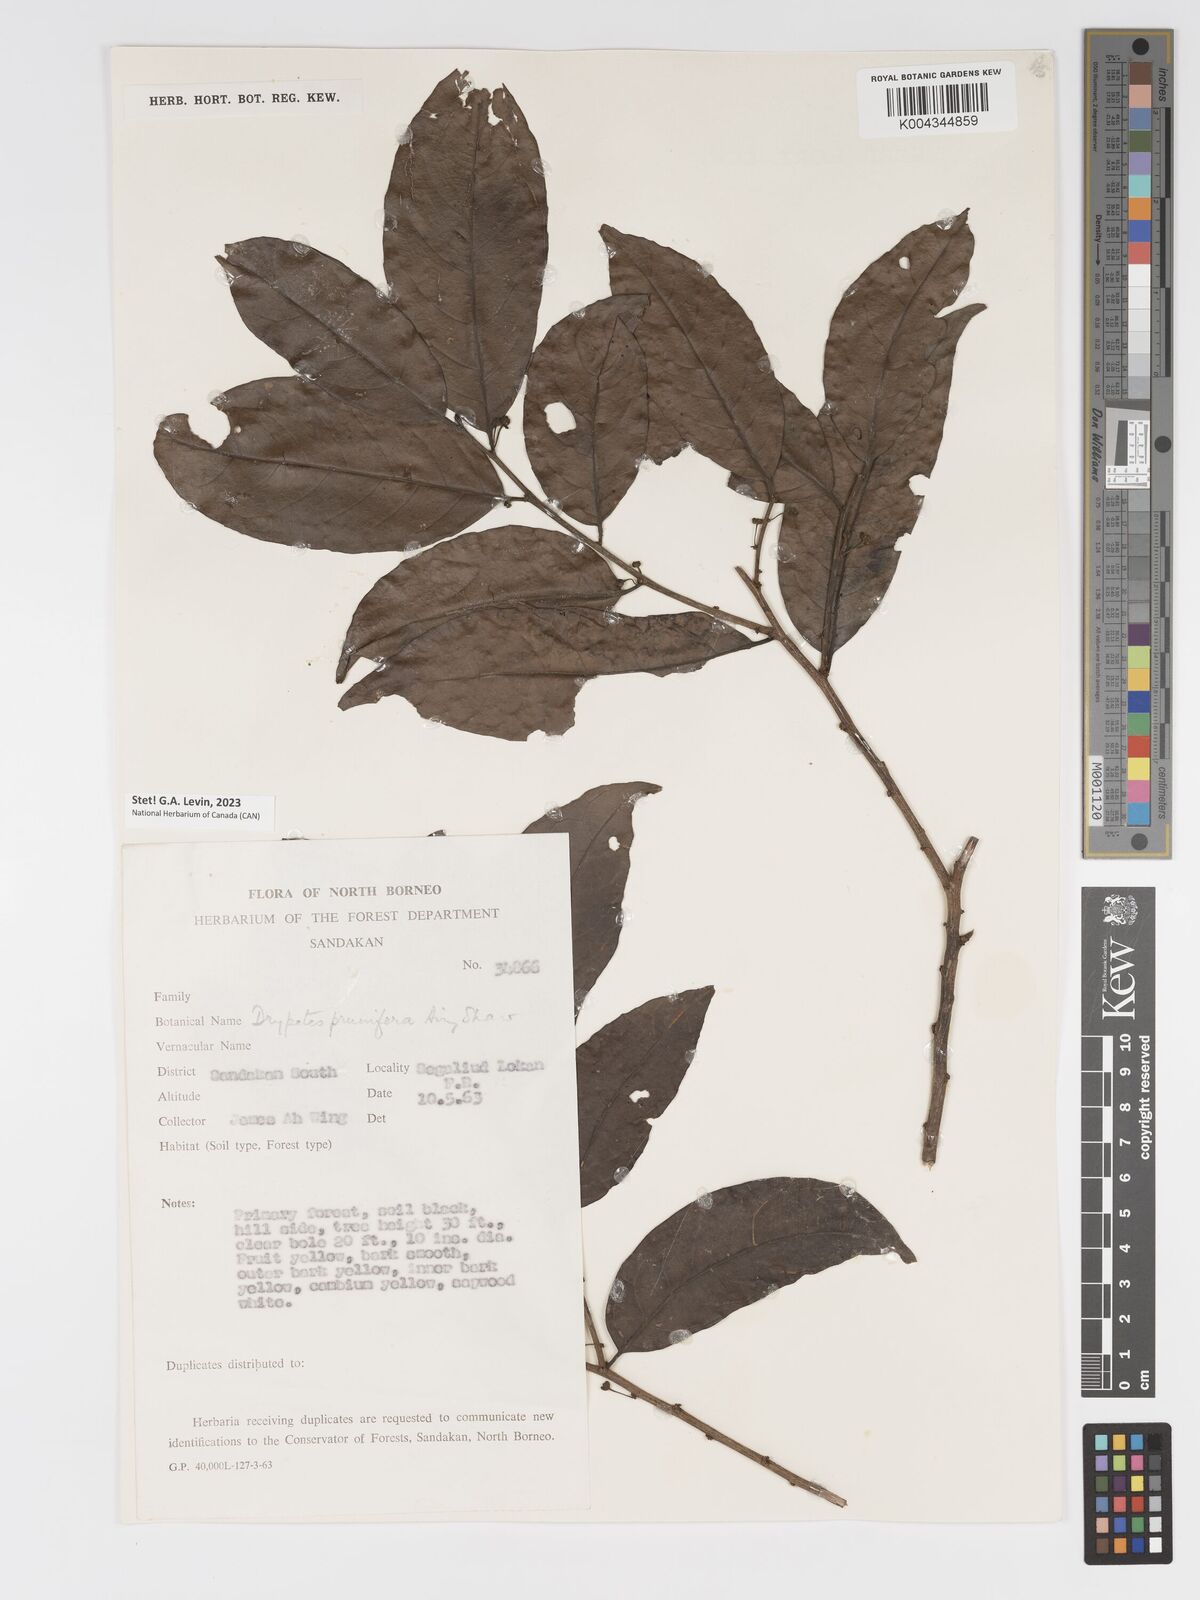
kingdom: Plantae
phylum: Tracheophyta
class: Magnoliopsida
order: Malpighiales
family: Putranjivaceae
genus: Drypetes
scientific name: Drypetes prunifera
